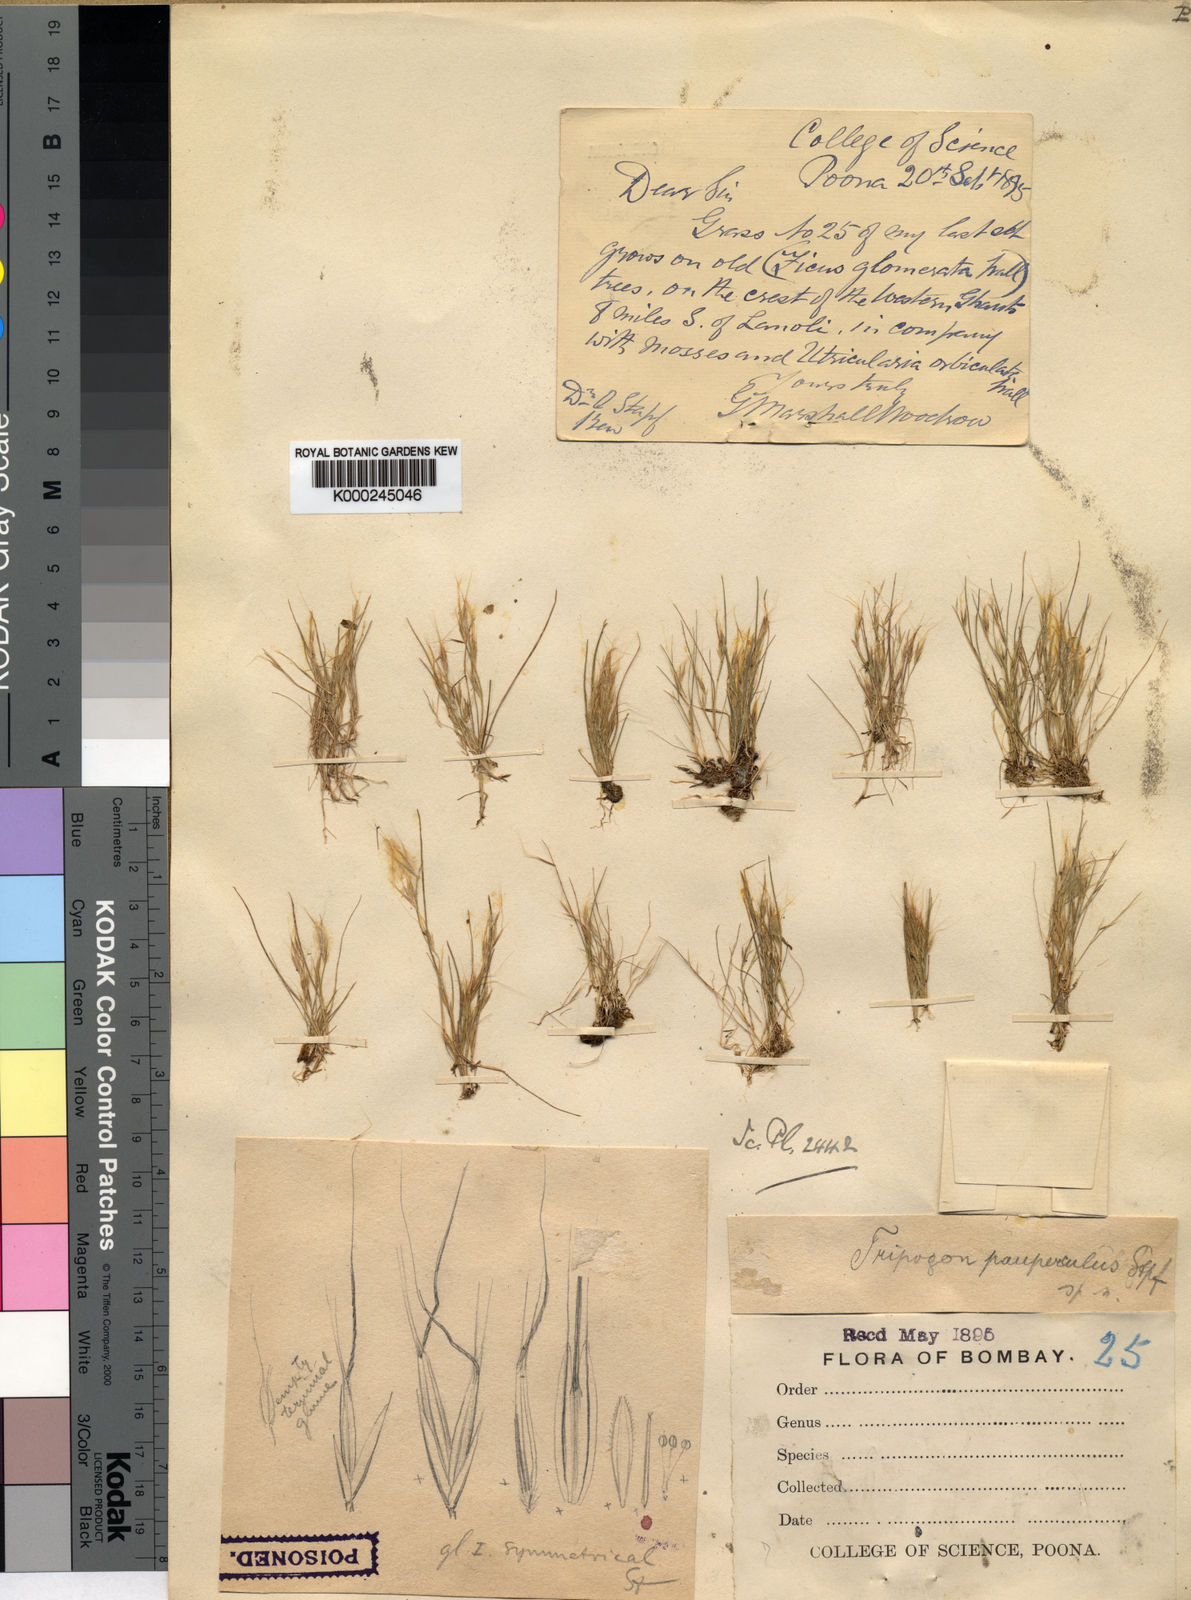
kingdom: Plantae
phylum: Tracheophyta
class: Liliopsida
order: Poales
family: Poaceae
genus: Indopoa
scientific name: Indopoa paupercula
